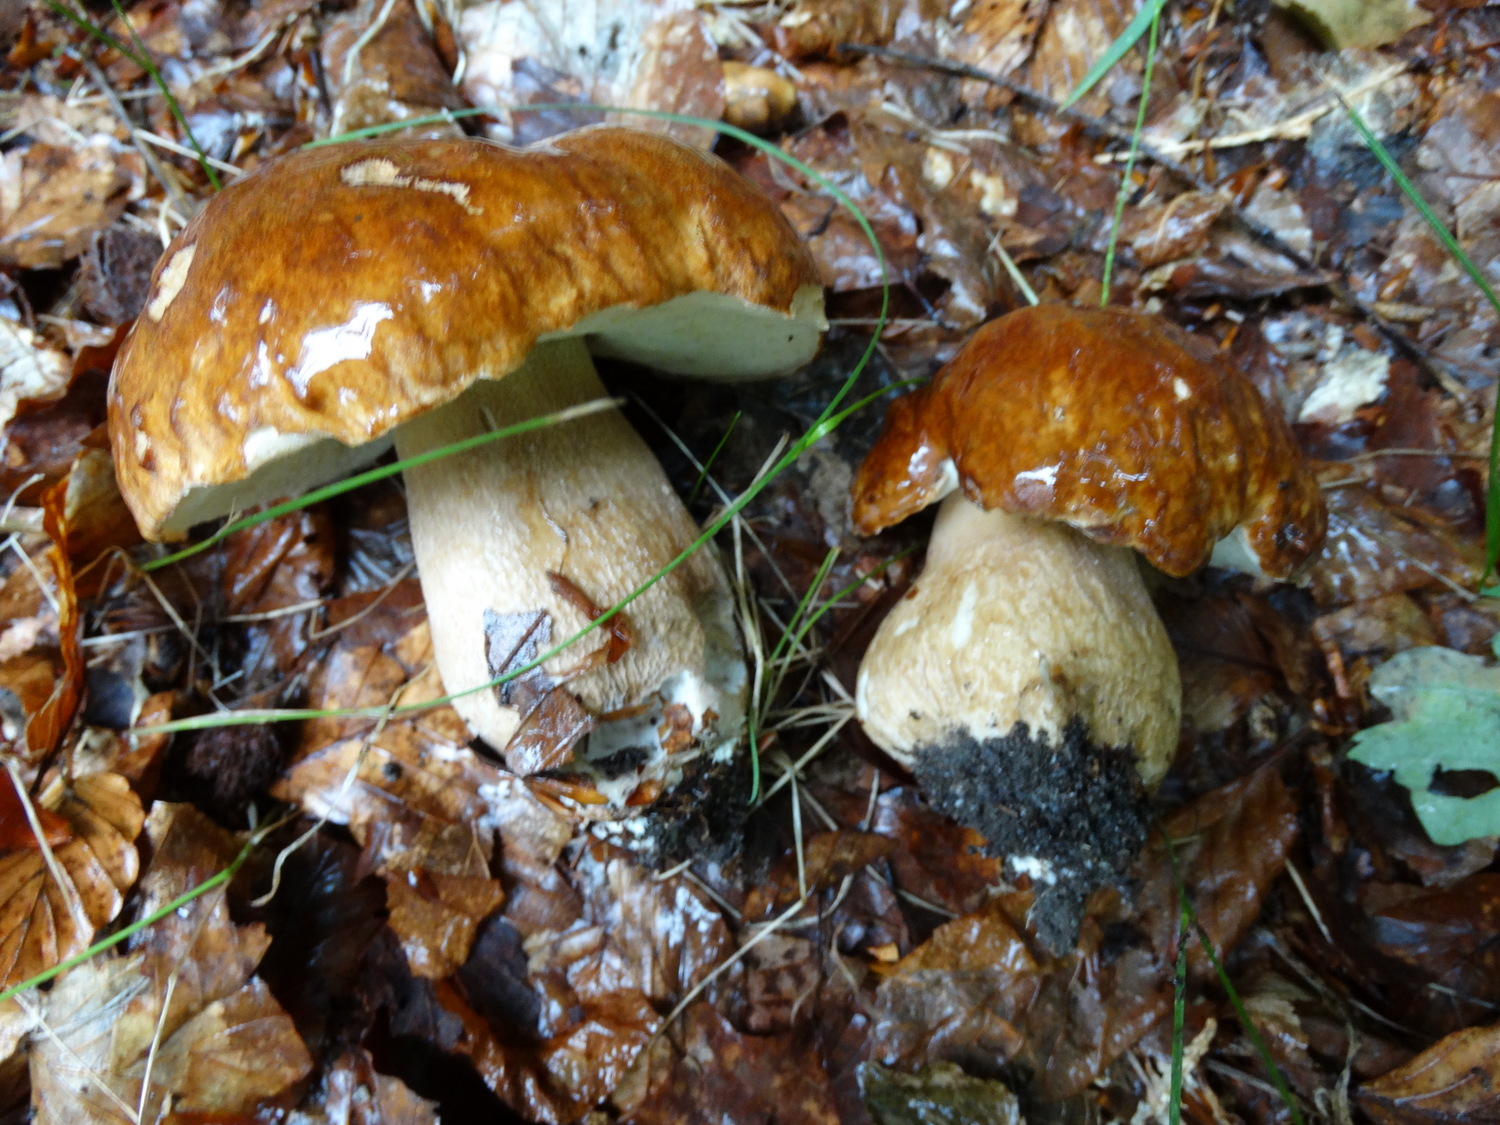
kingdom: Fungi
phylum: Basidiomycota
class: Agaricomycetes
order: Boletales
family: Boletaceae
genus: Boletus
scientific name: Boletus edulis
